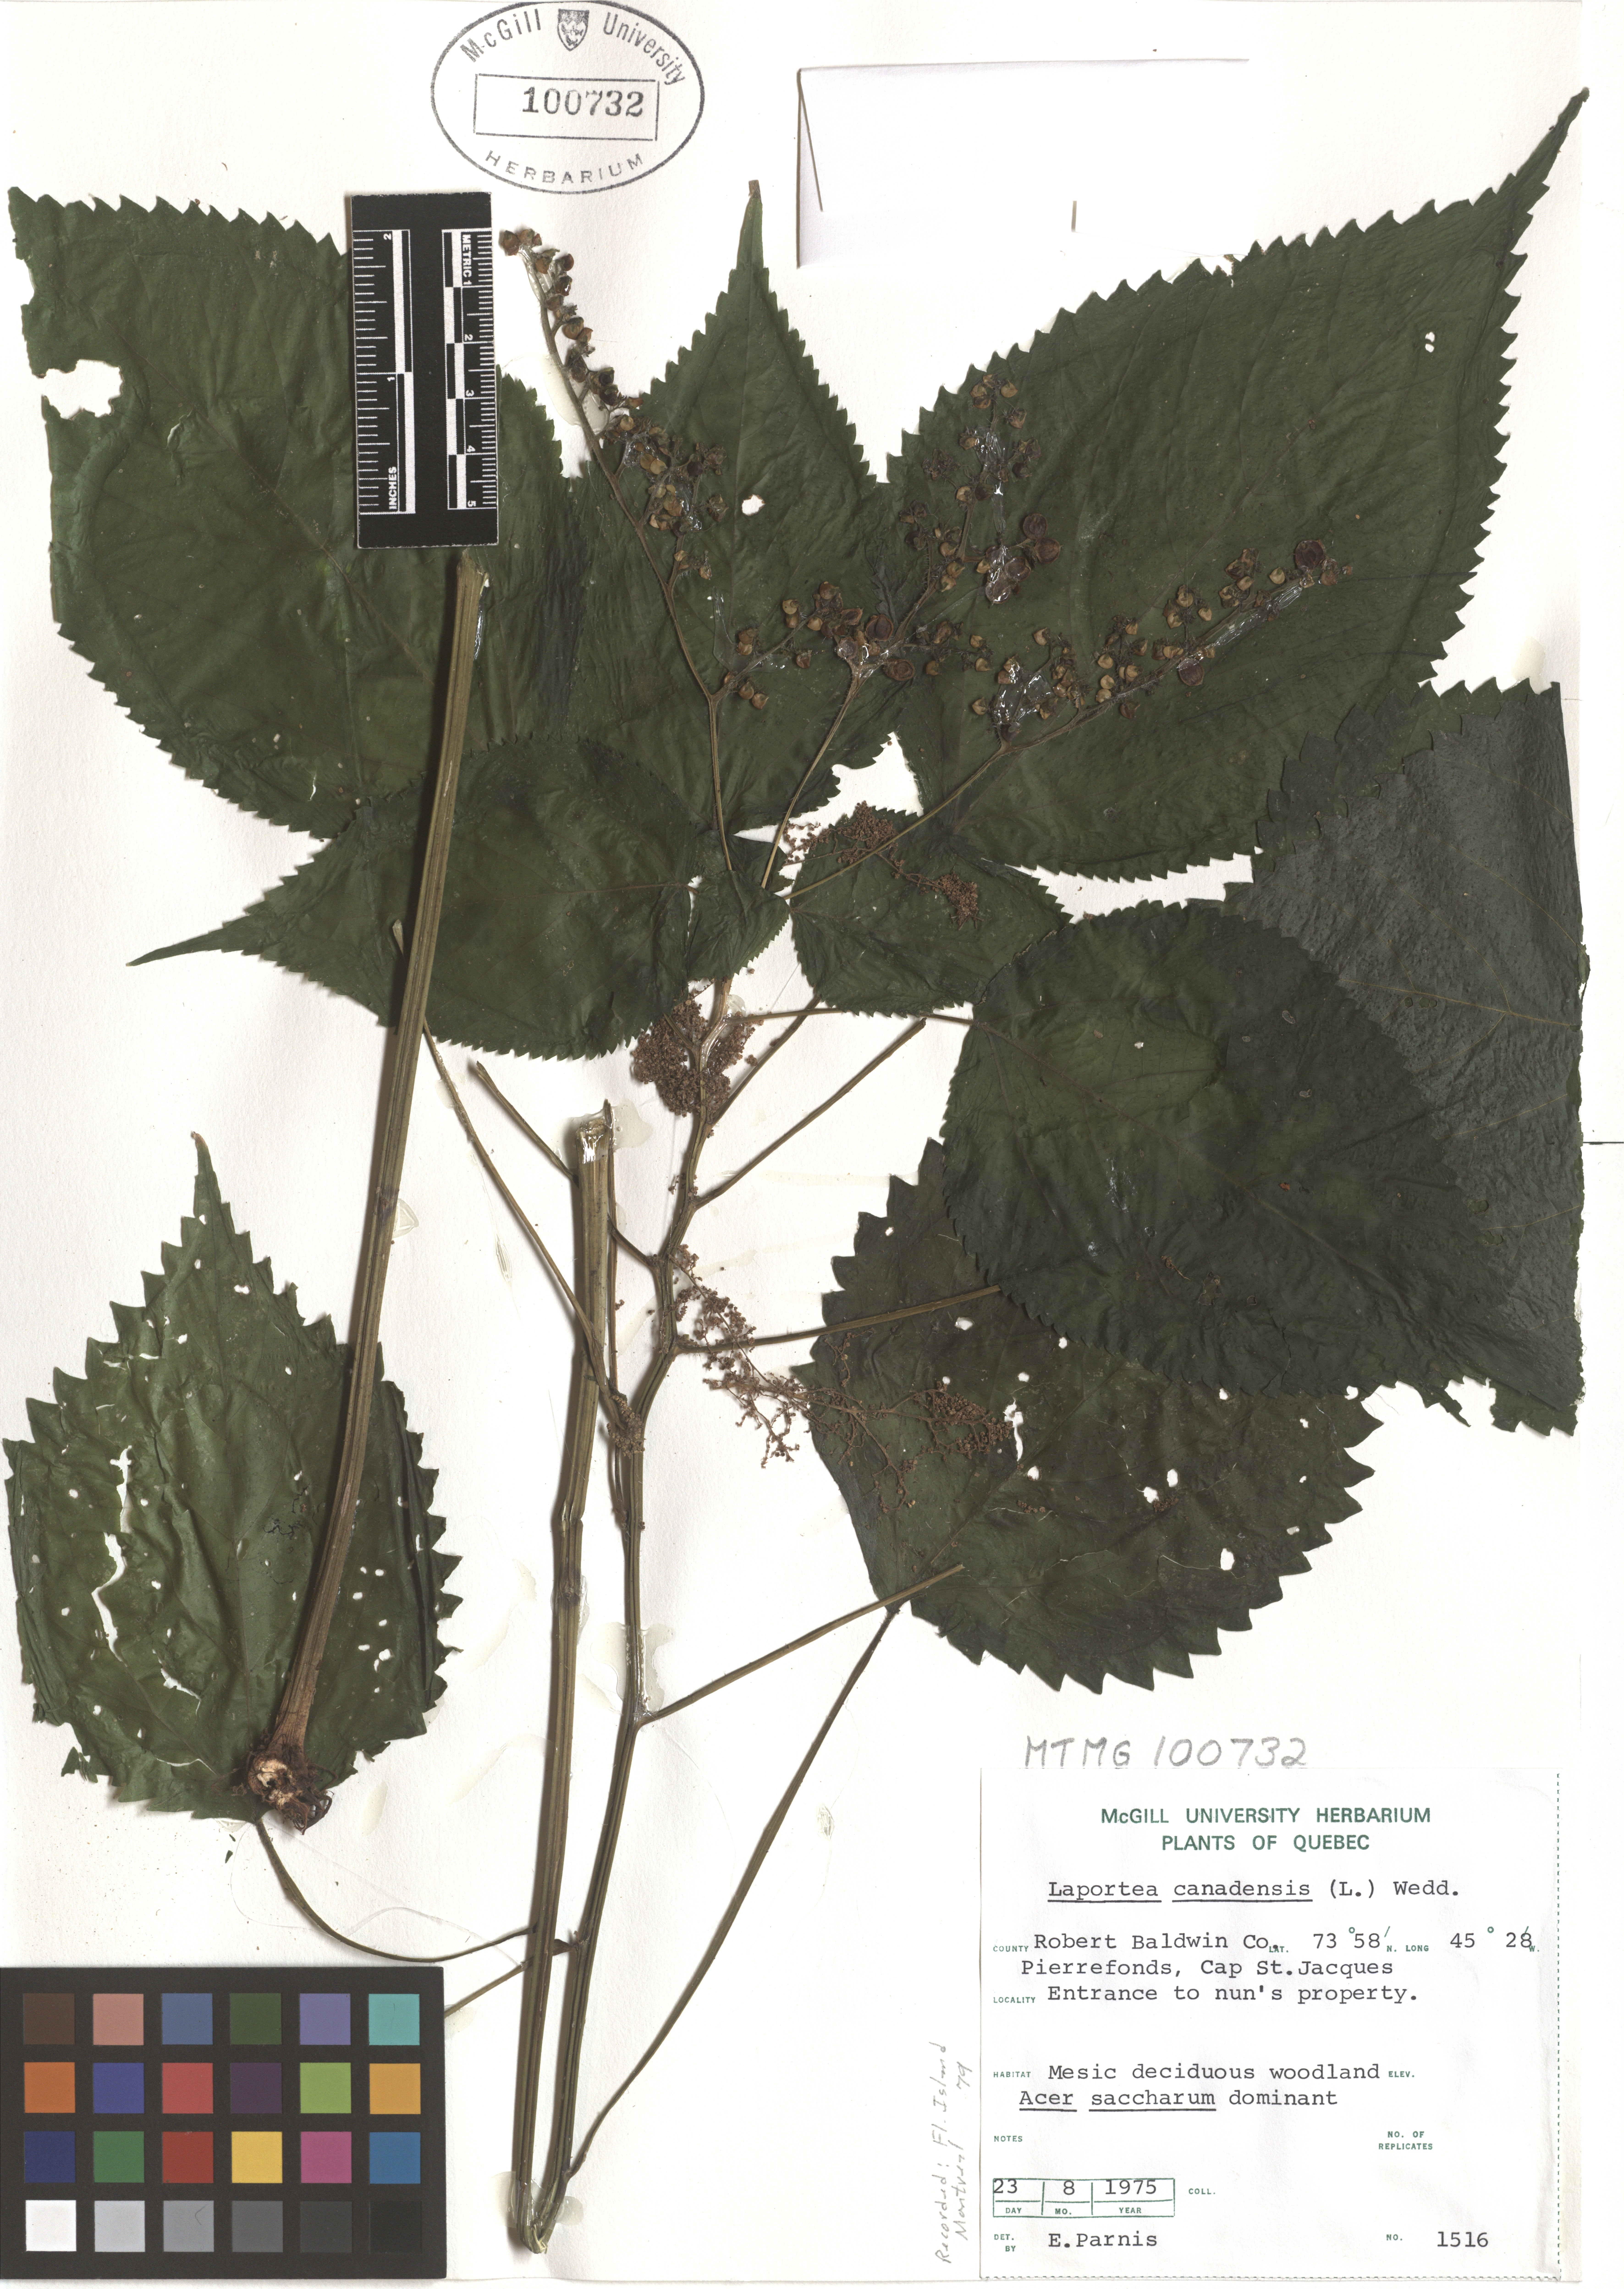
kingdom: Plantae
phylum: Tracheophyta
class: Magnoliopsida
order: Rosales
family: Urticaceae
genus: Laportea
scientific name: Laportea canadensis
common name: Canada nettle
